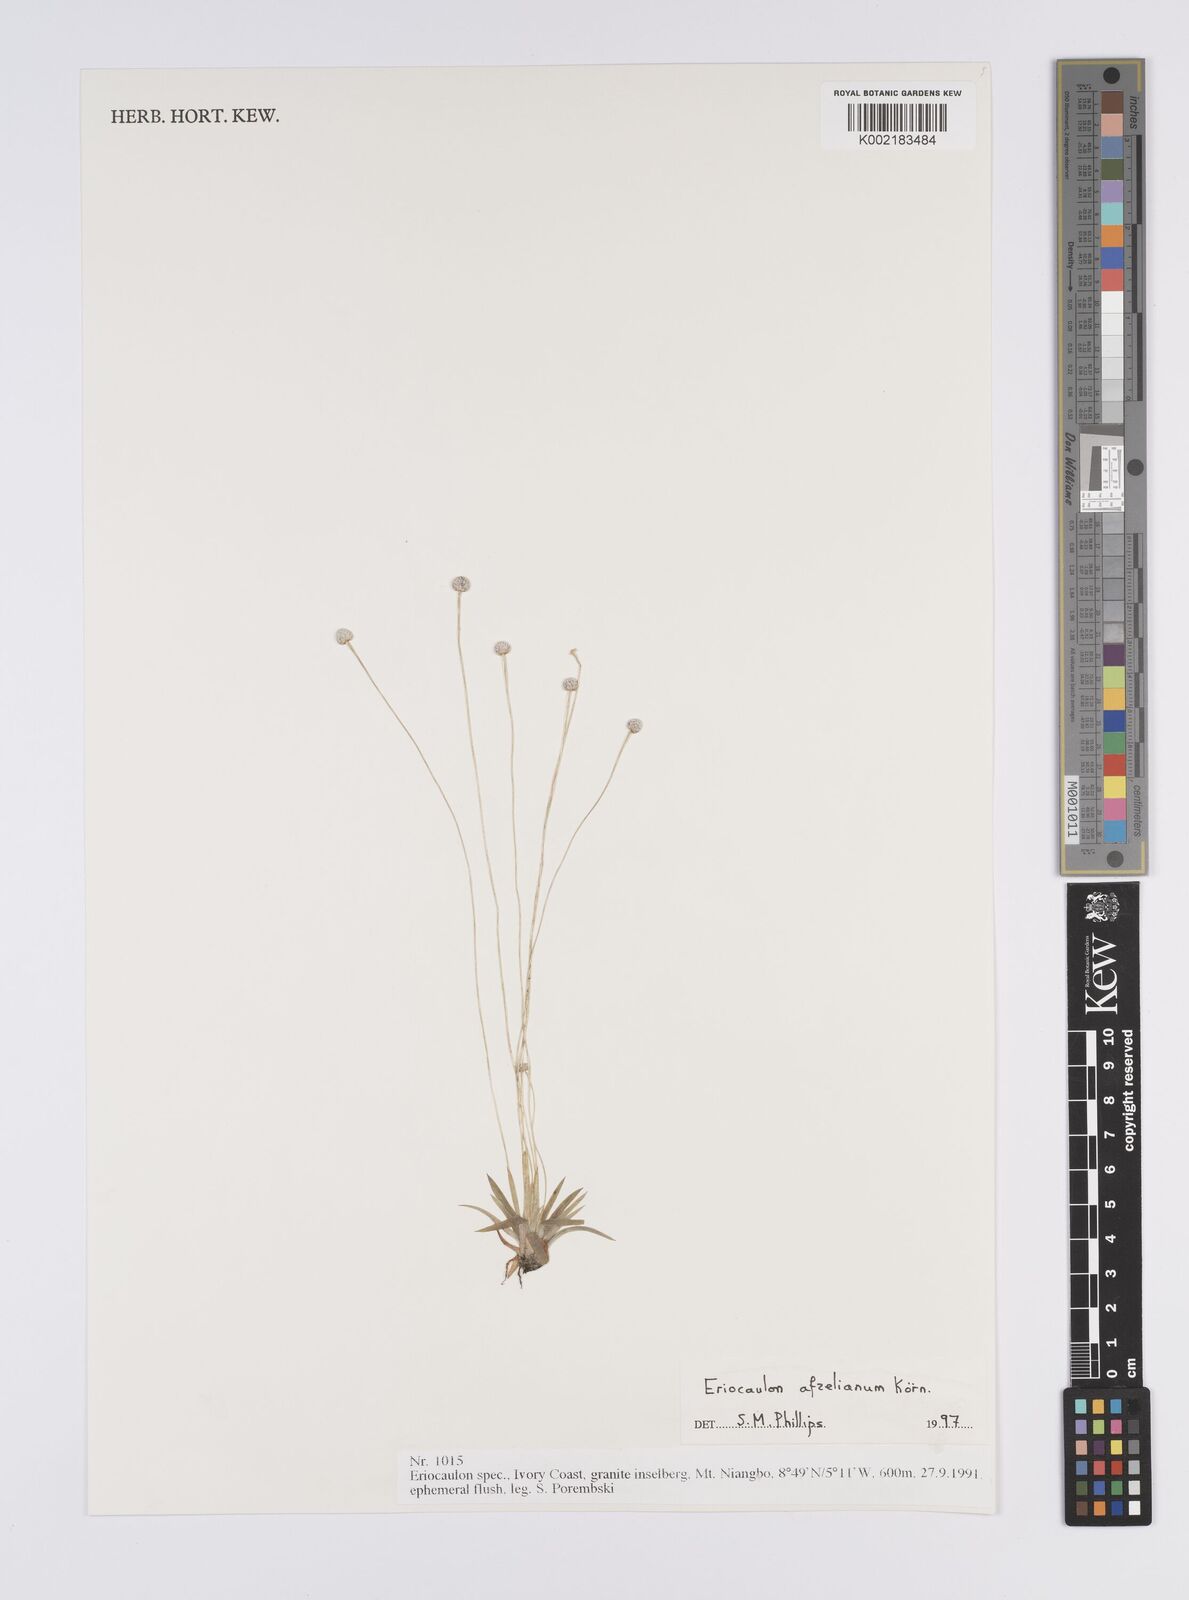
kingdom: Plantae
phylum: Tracheophyta
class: Liliopsida
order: Poales
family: Eriocaulaceae
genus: Eriocaulon
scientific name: Eriocaulon afzelianum
